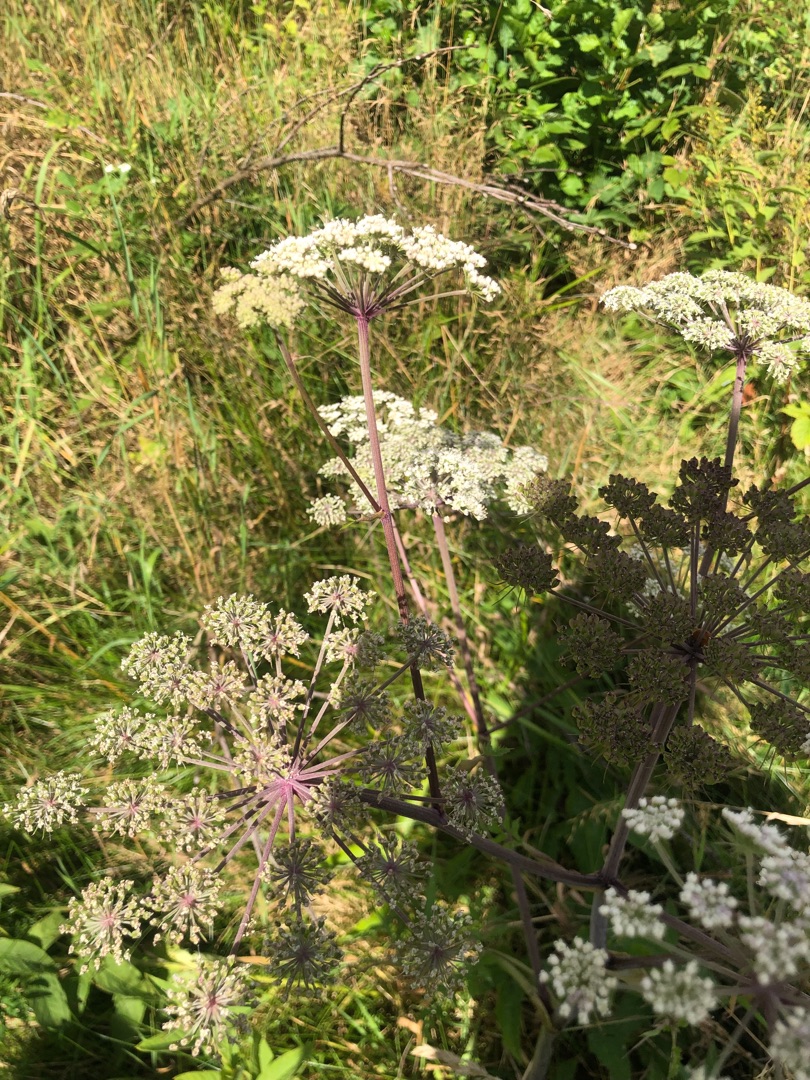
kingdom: Plantae
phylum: Tracheophyta
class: Magnoliopsida
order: Apiales
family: Apiaceae
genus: Angelica
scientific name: Angelica sylvestris
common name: Angelik
